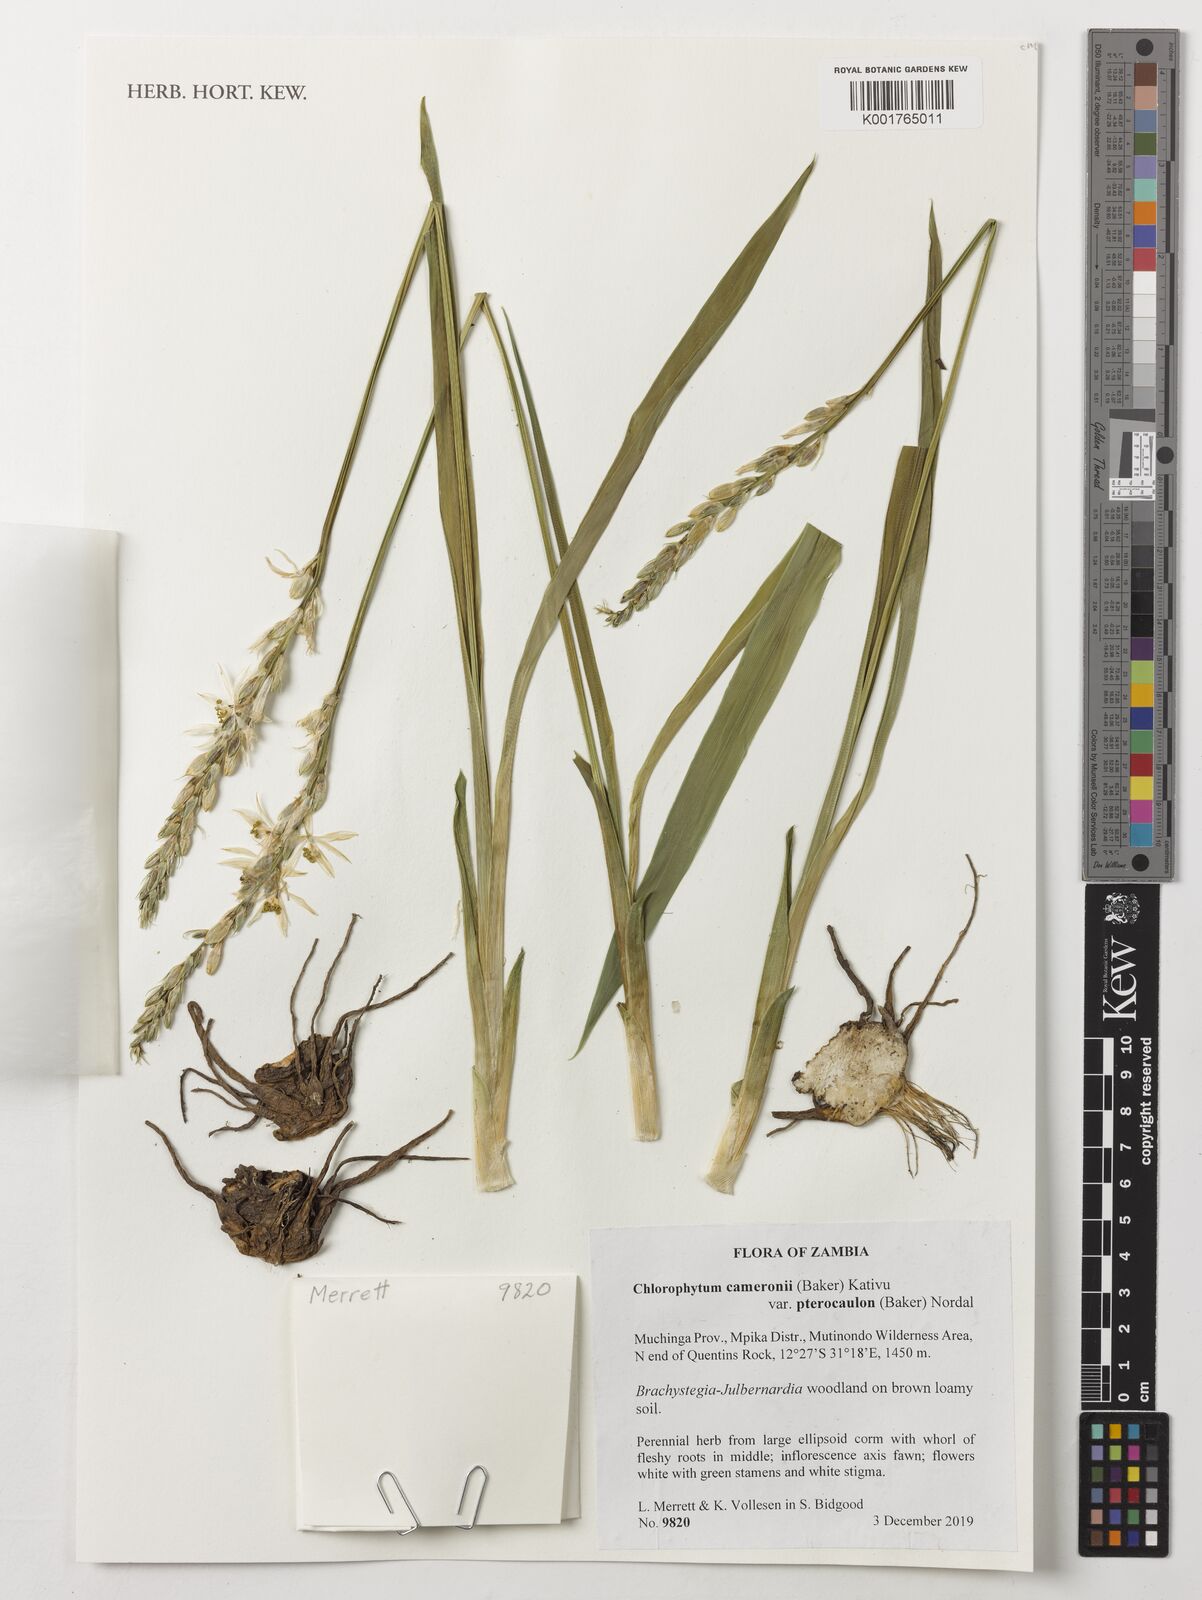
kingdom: Plantae
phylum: Tracheophyta
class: Liliopsida
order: Asparagales
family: Asparagaceae
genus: Chlorophytum
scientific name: Chlorophytum cameronii
